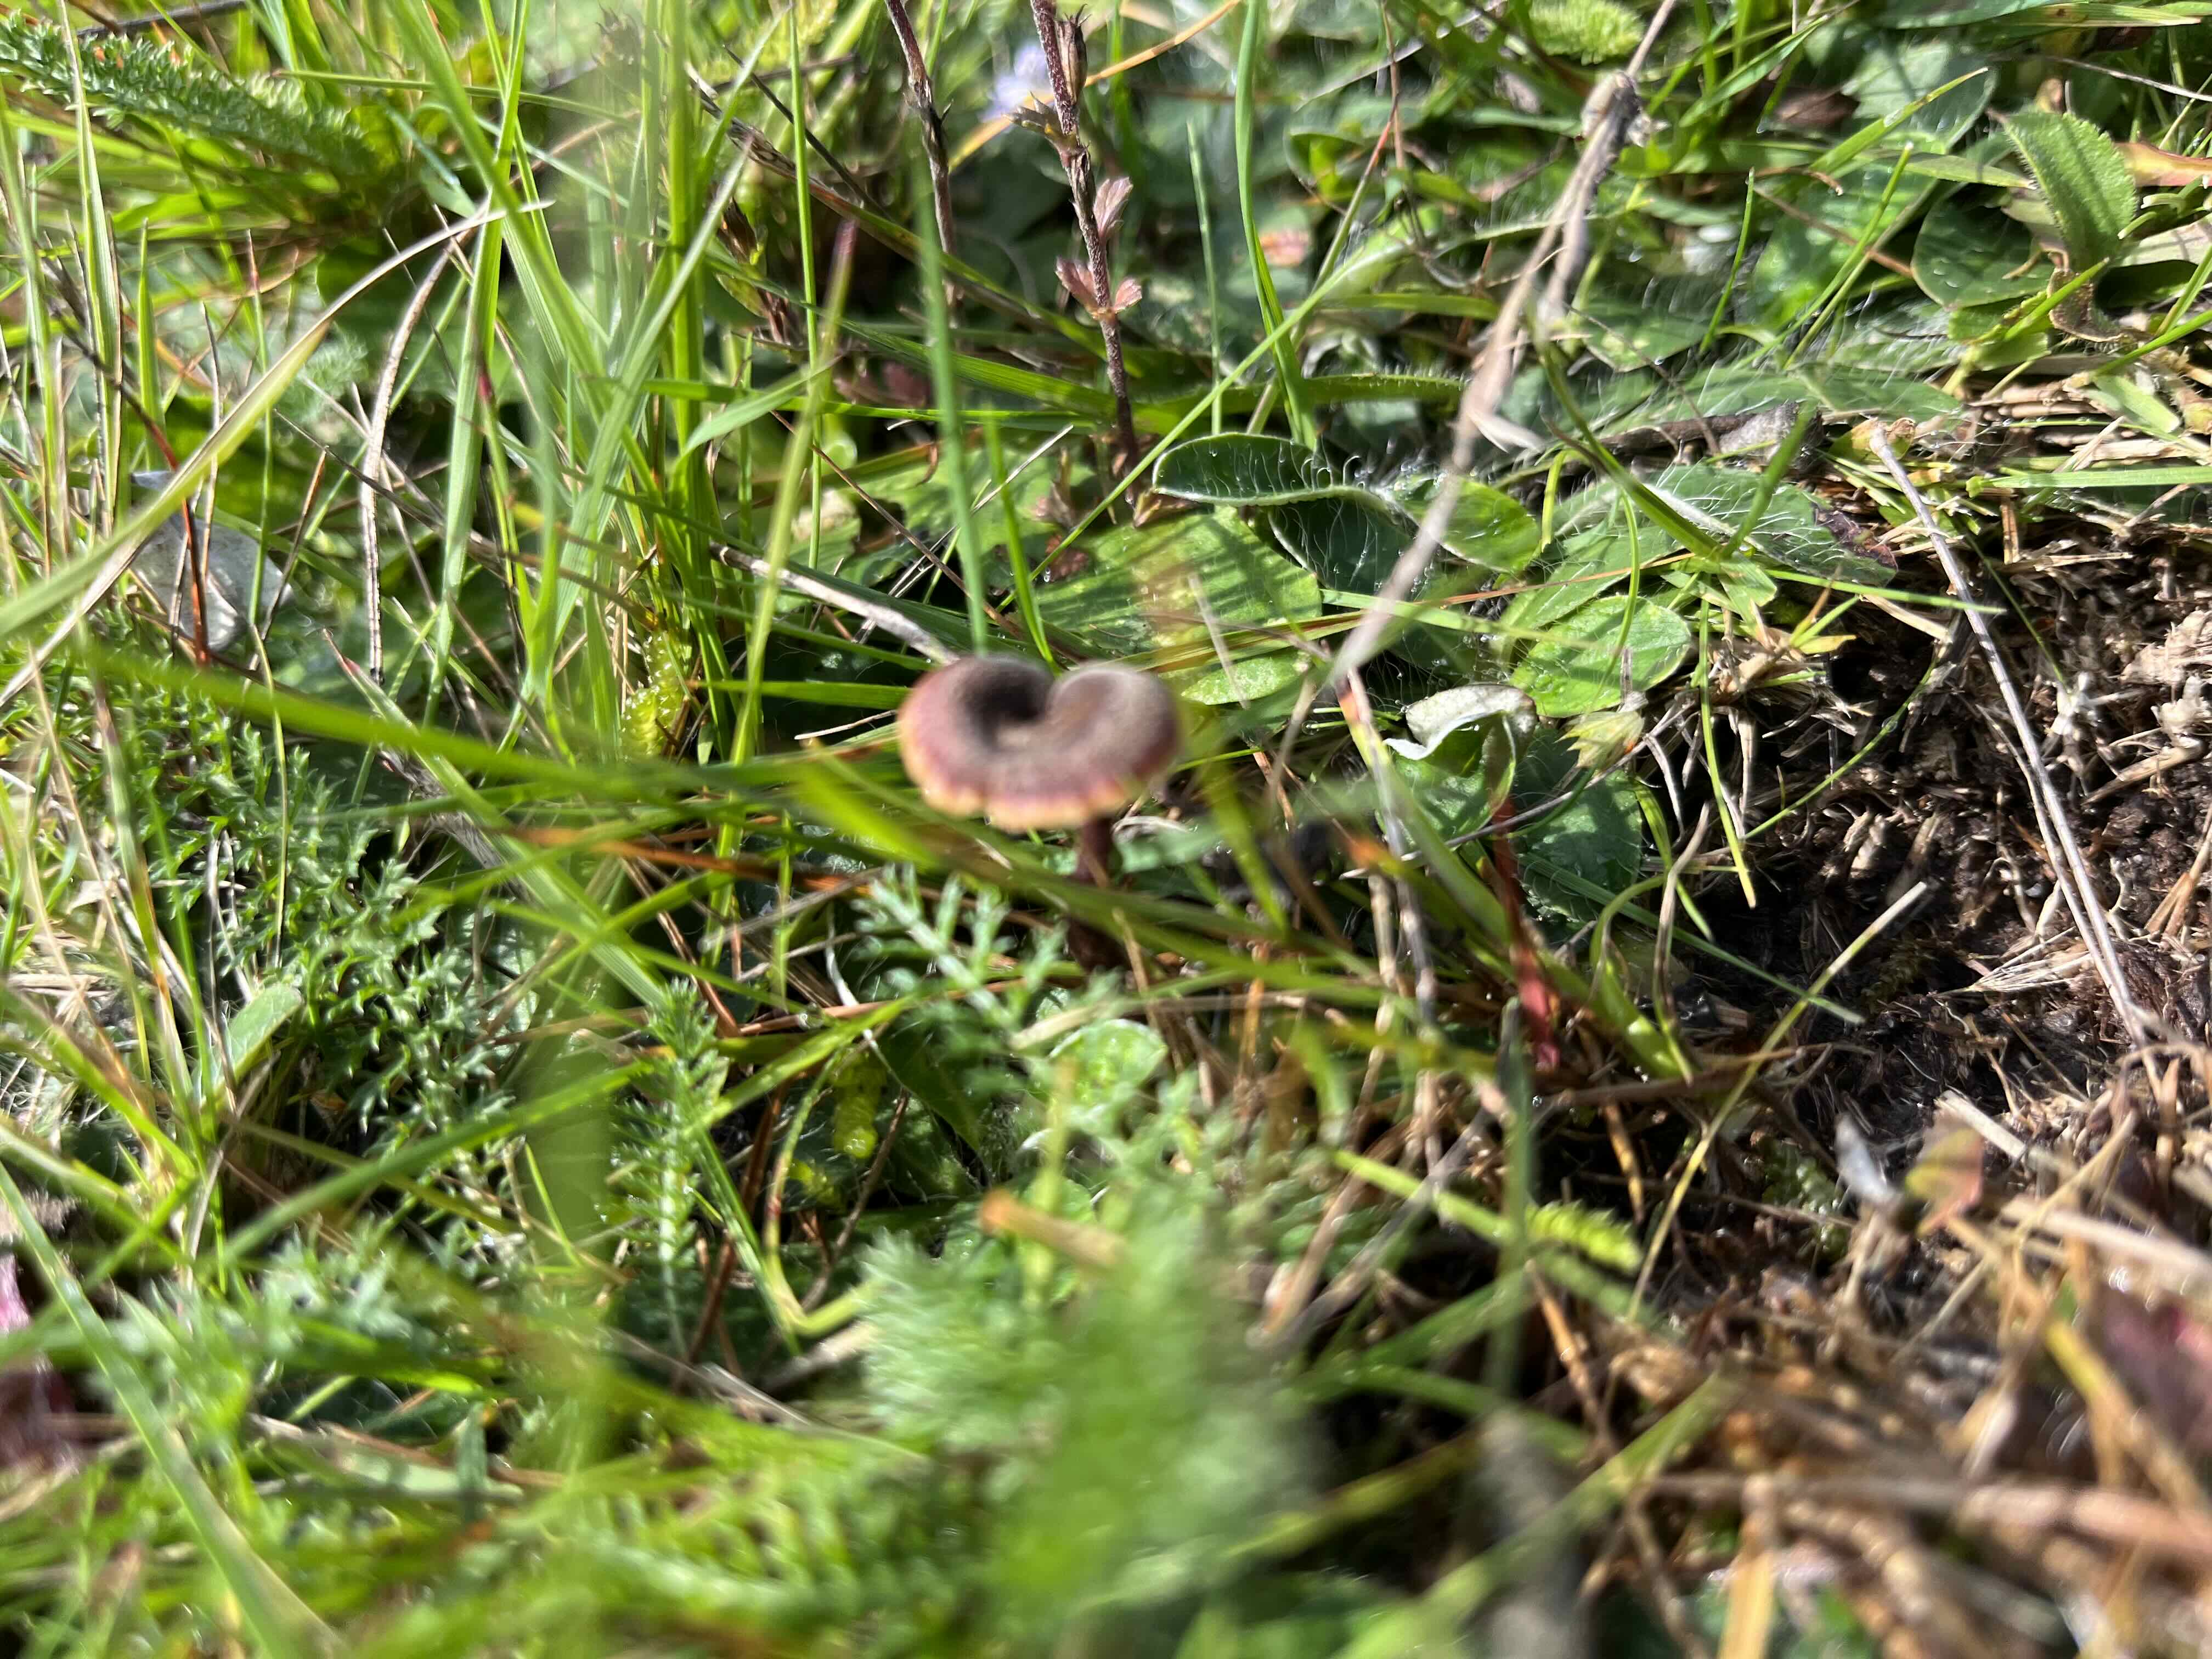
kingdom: Fungi
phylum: Basidiomycota
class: Agaricomycetes
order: Russulales
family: Auriscalpiaceae
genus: Auriscalpium
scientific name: Auriscalpium vulgare
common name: koglepigsvamp
